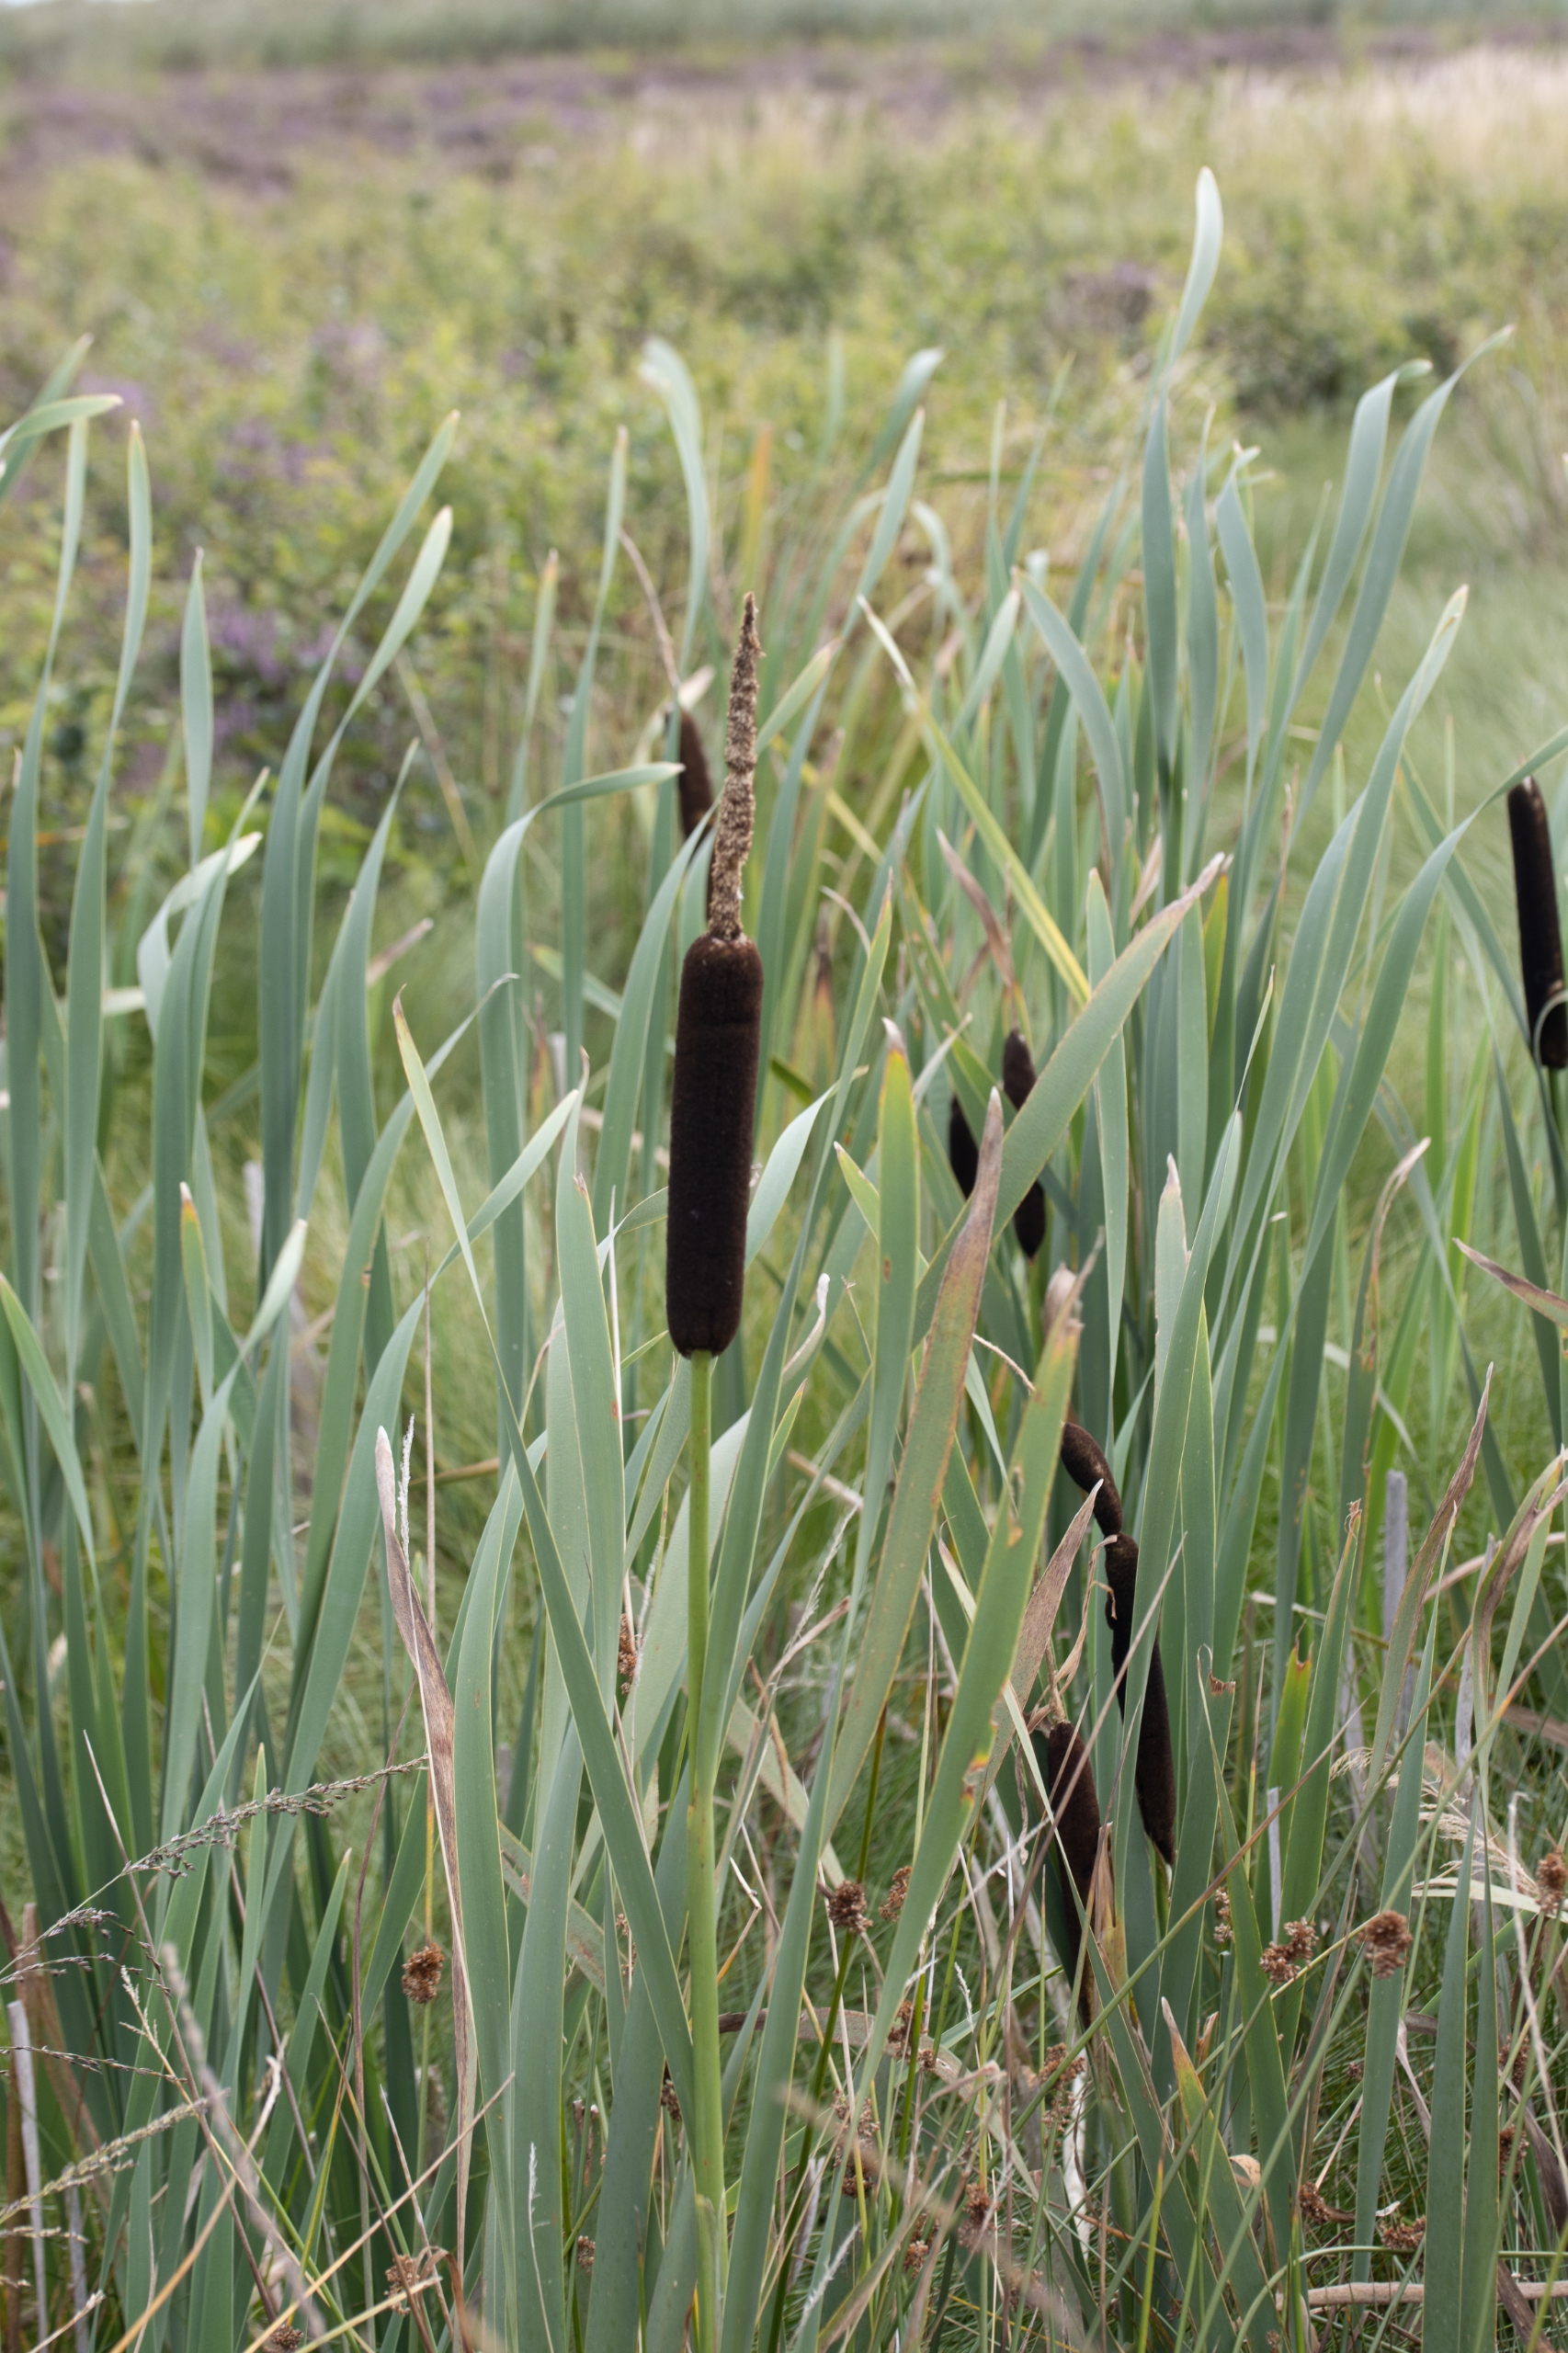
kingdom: Plantae
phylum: Tracheophyta
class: Liliopsida
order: Poales
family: Typhaceae
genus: Typha
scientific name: Typha latifolia
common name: Bredbladet dunhammer
